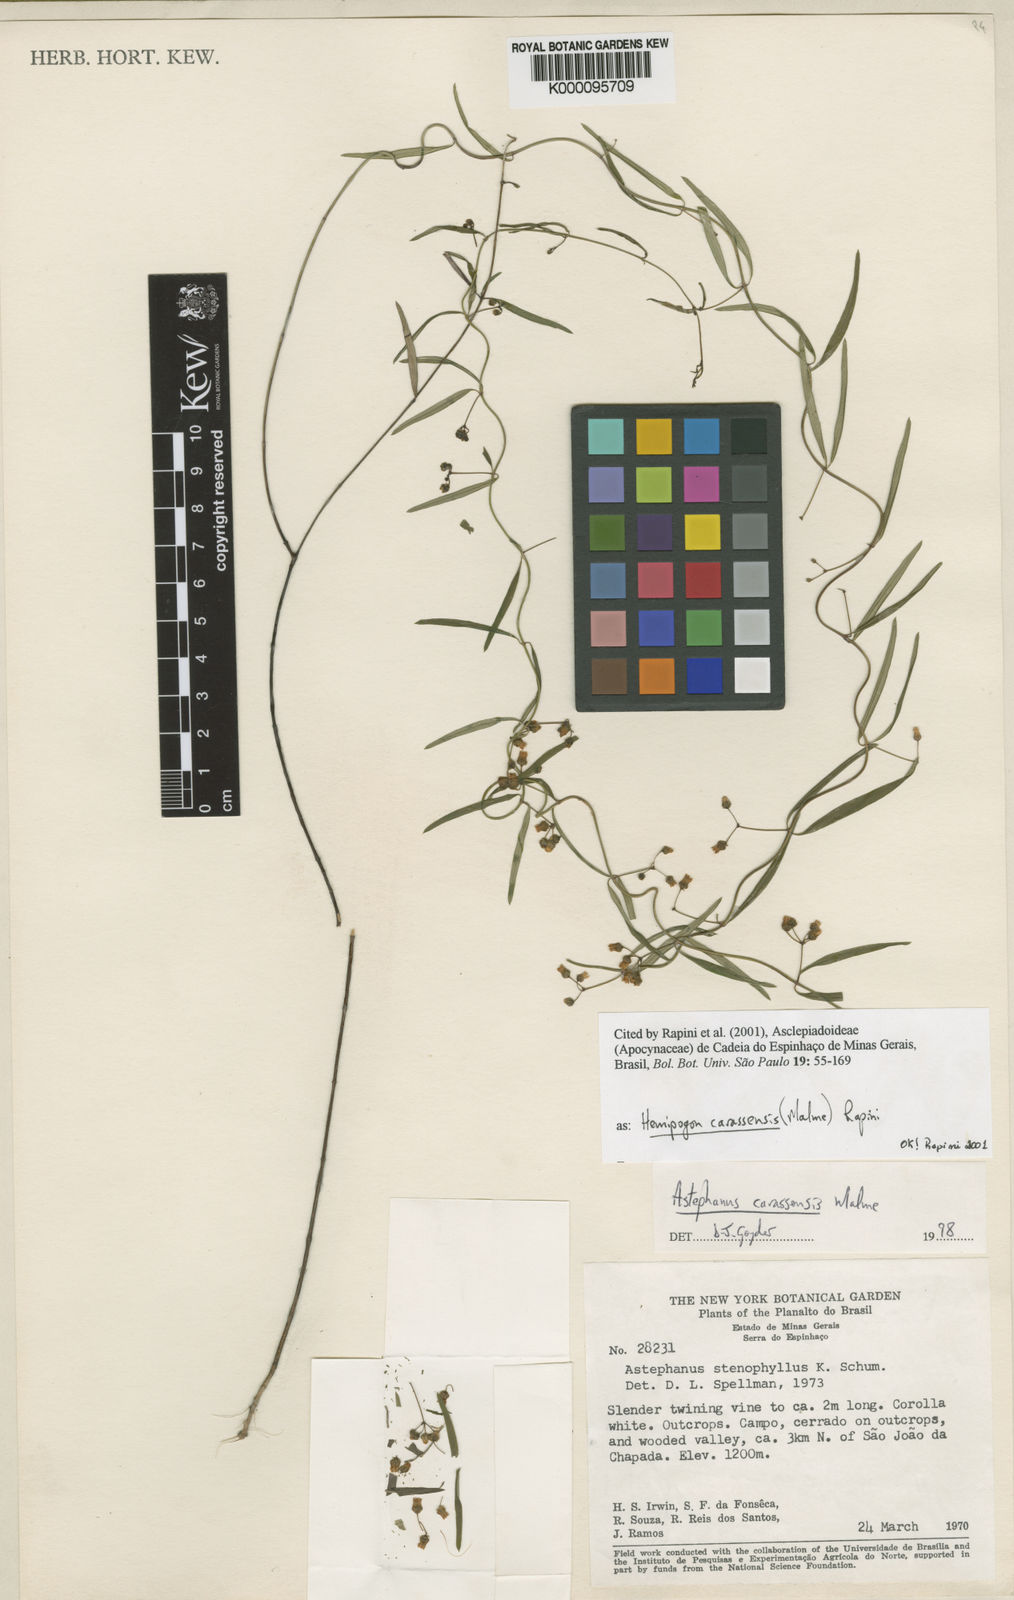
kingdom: Plantae
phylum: Tracheophyta
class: Magnoliopsida
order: Gentianales
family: Apocynaceae
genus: Morilloa
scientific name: Morilloa carassensis
